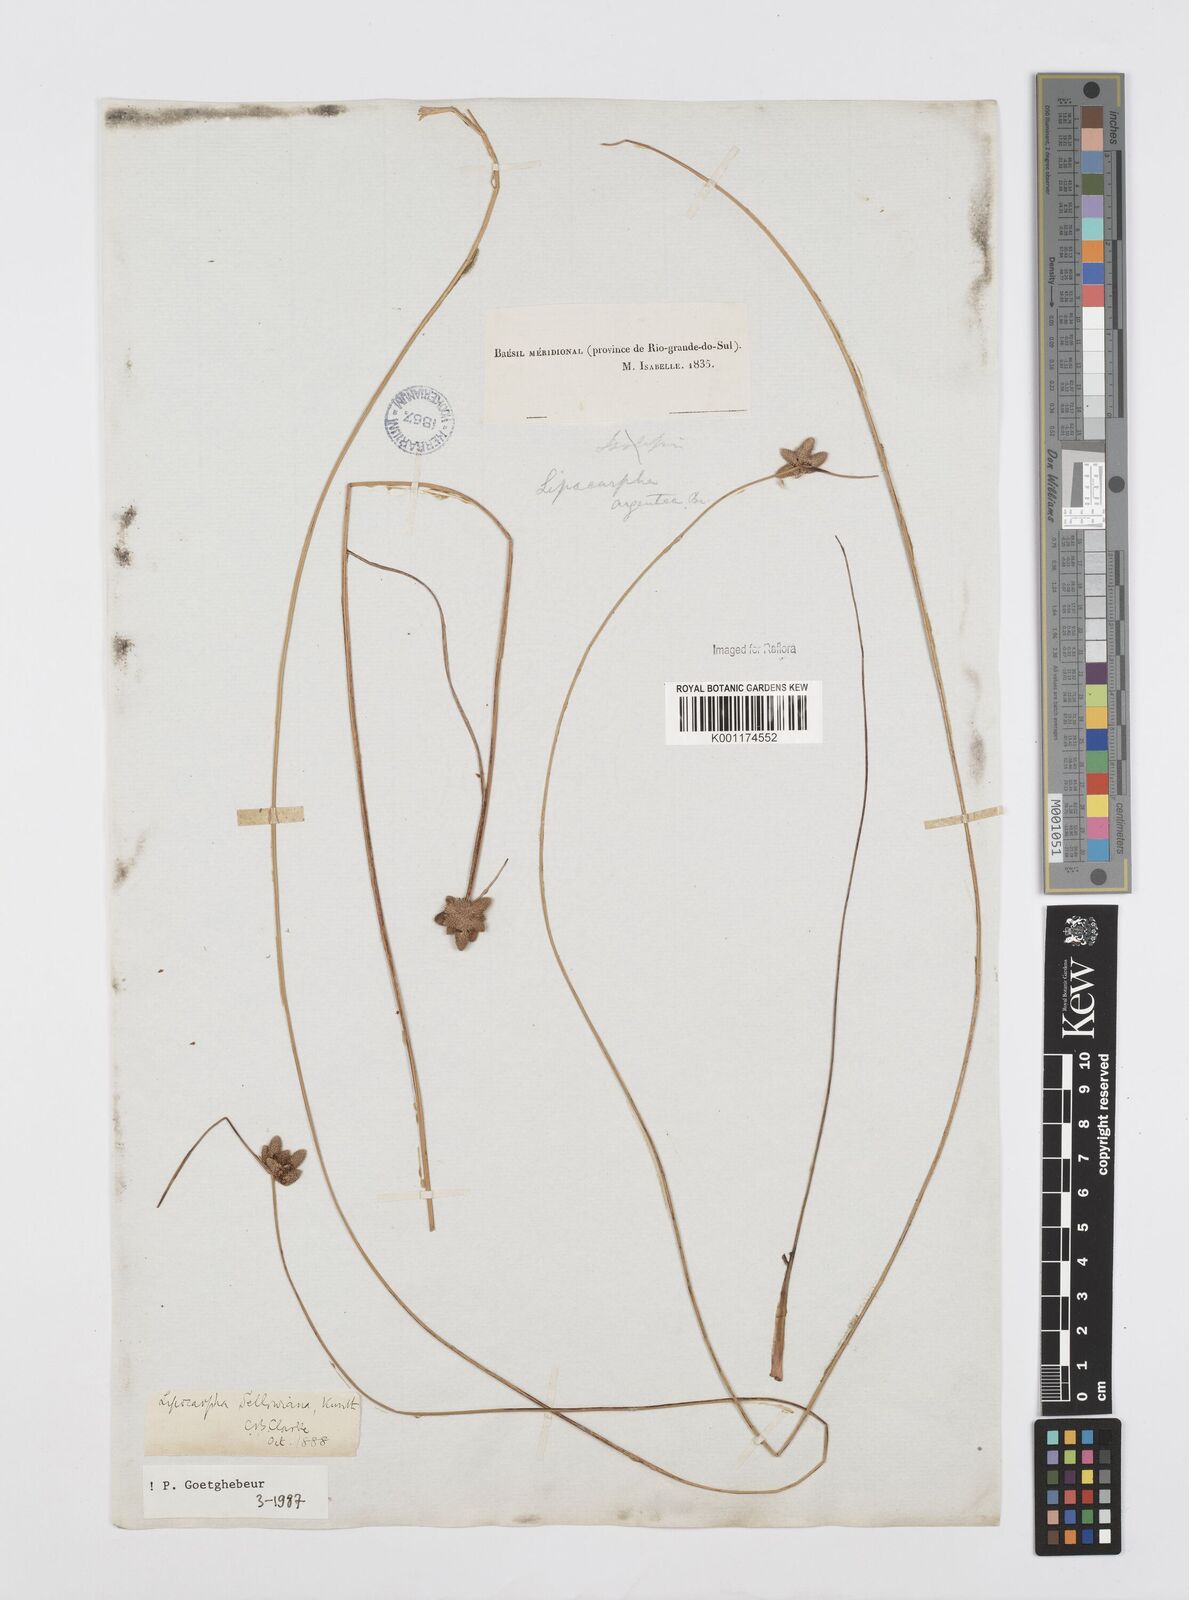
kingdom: Plantae
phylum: Tracheophyta
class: Liliopsida
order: Poales
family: Cyperaceae
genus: Cyperus
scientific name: Cyperus lanceolatus
